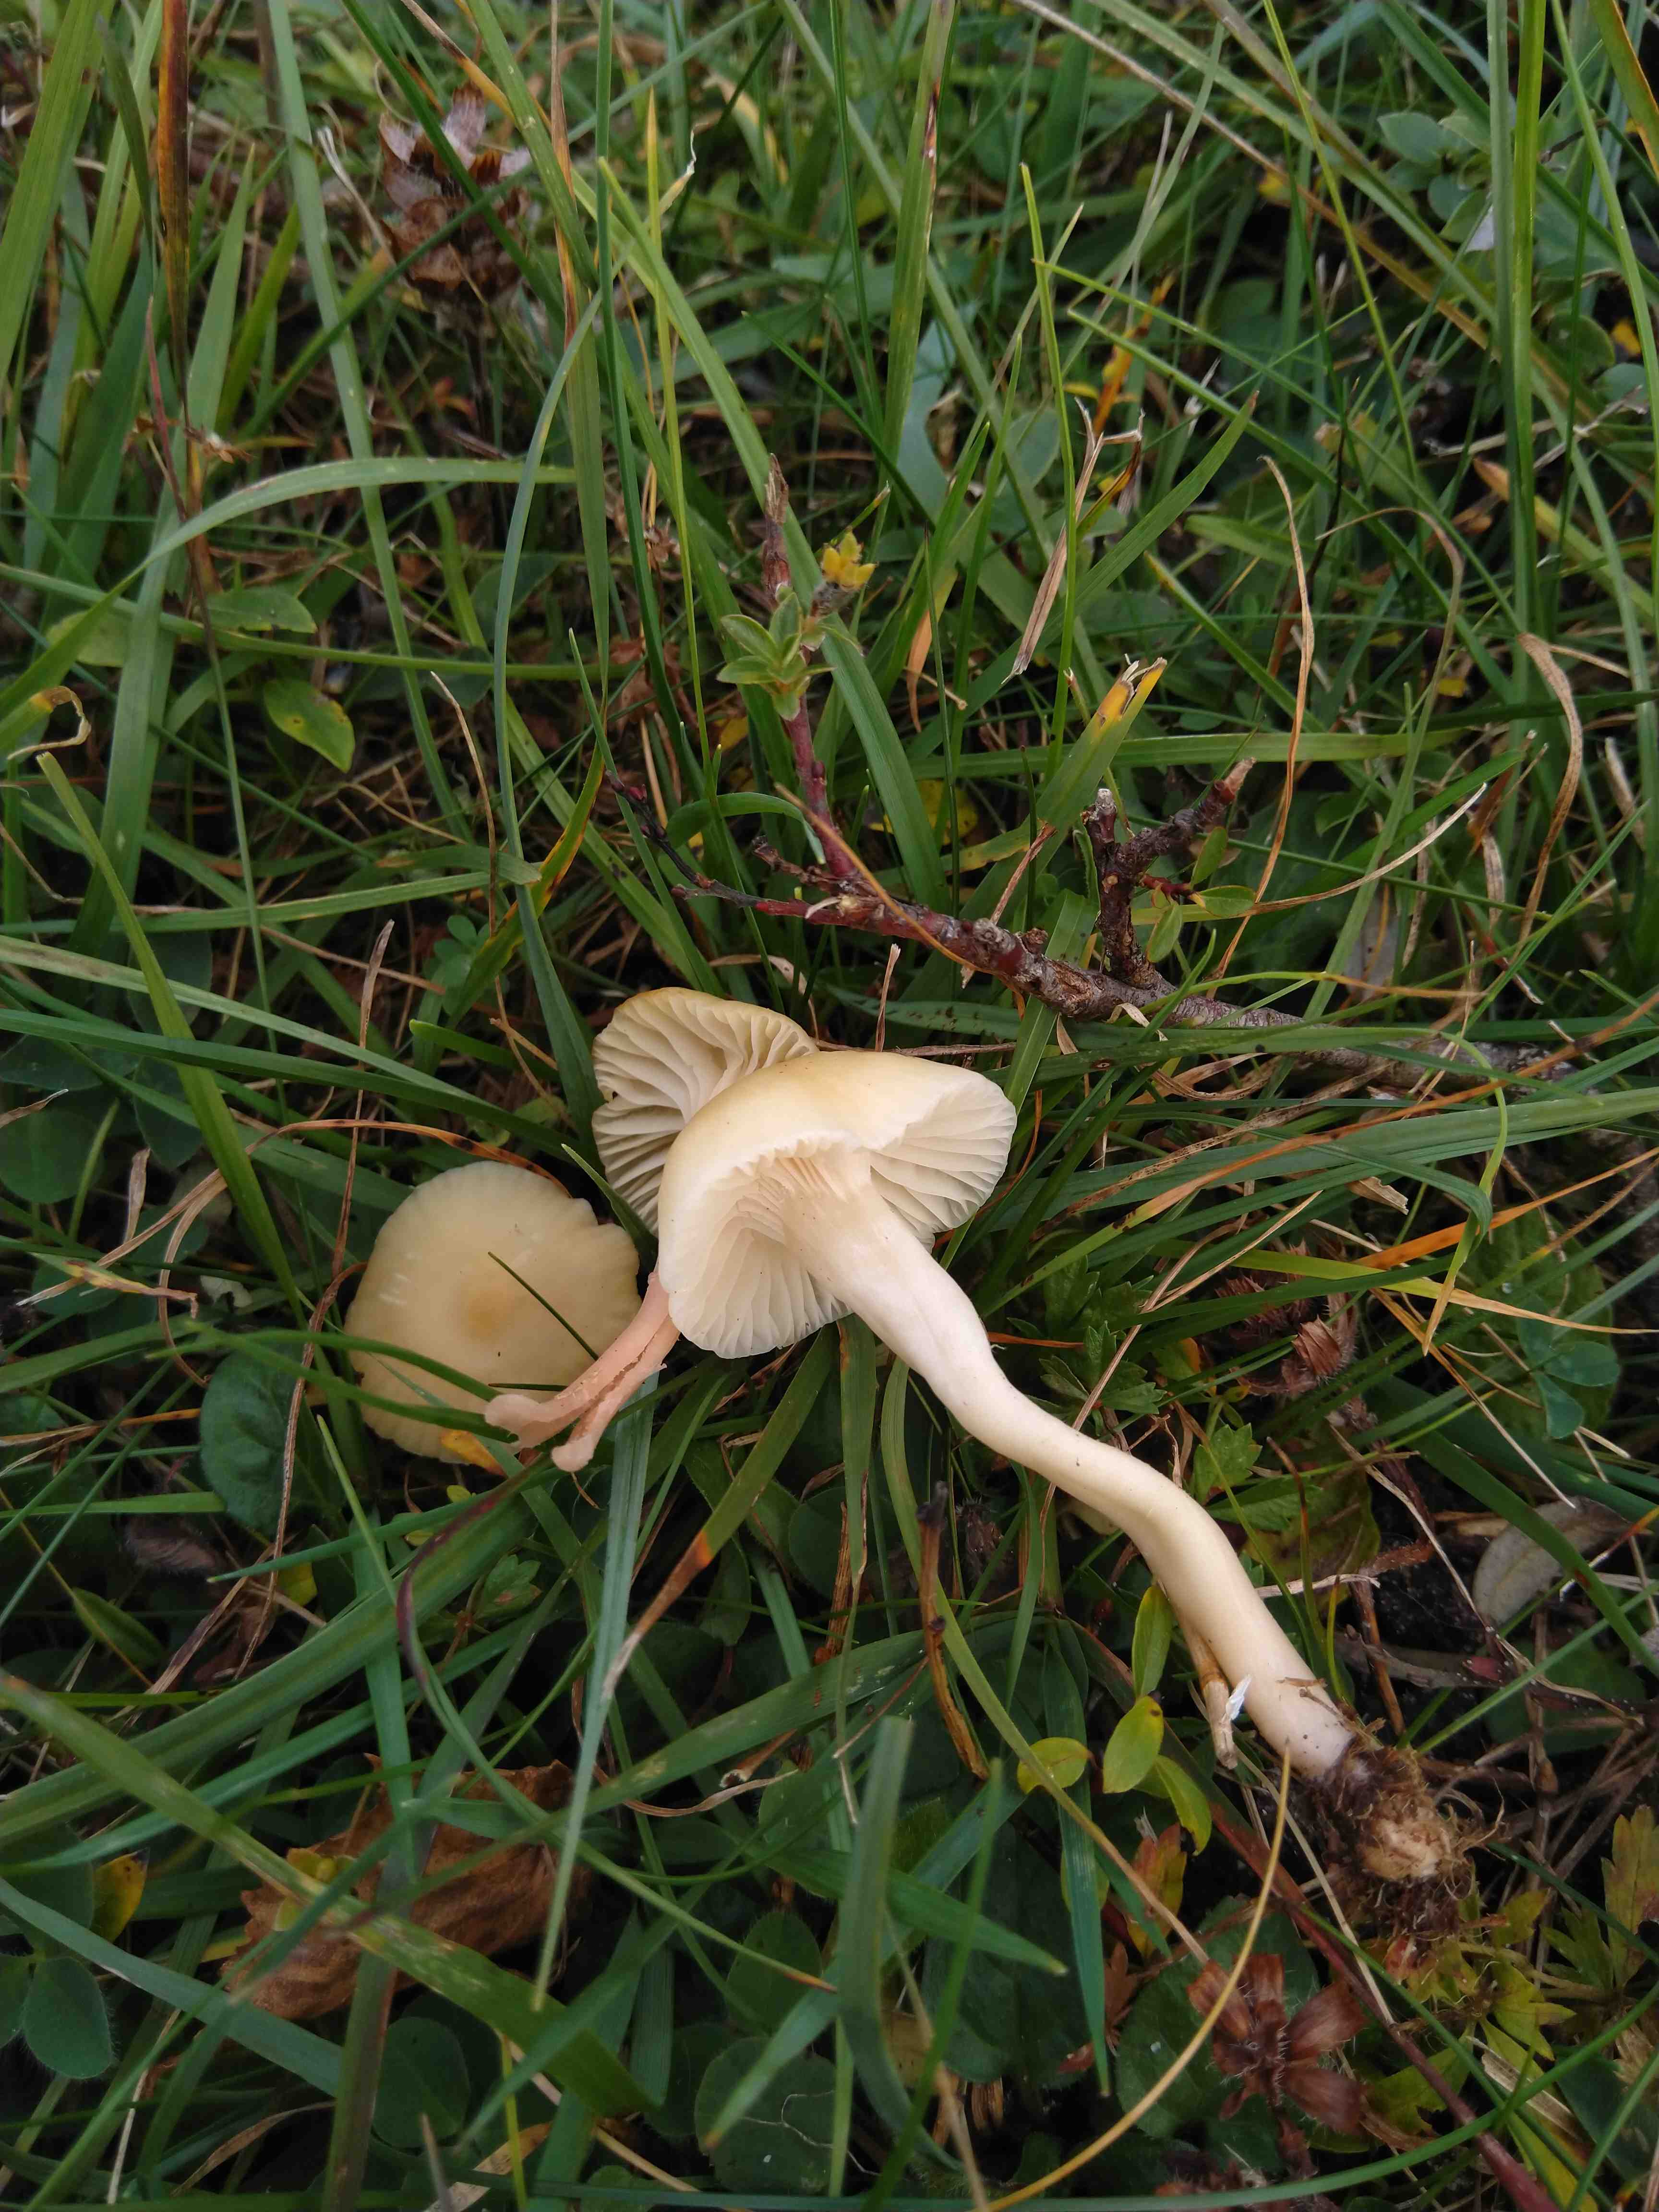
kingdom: Fungi
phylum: Basidiomycota
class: Agaricomycetes
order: Agaricales
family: Hygrophoraceae
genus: Cuphophyllus
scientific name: Cuphophyllus russocoriaceus
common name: ruslæder-vokshat
